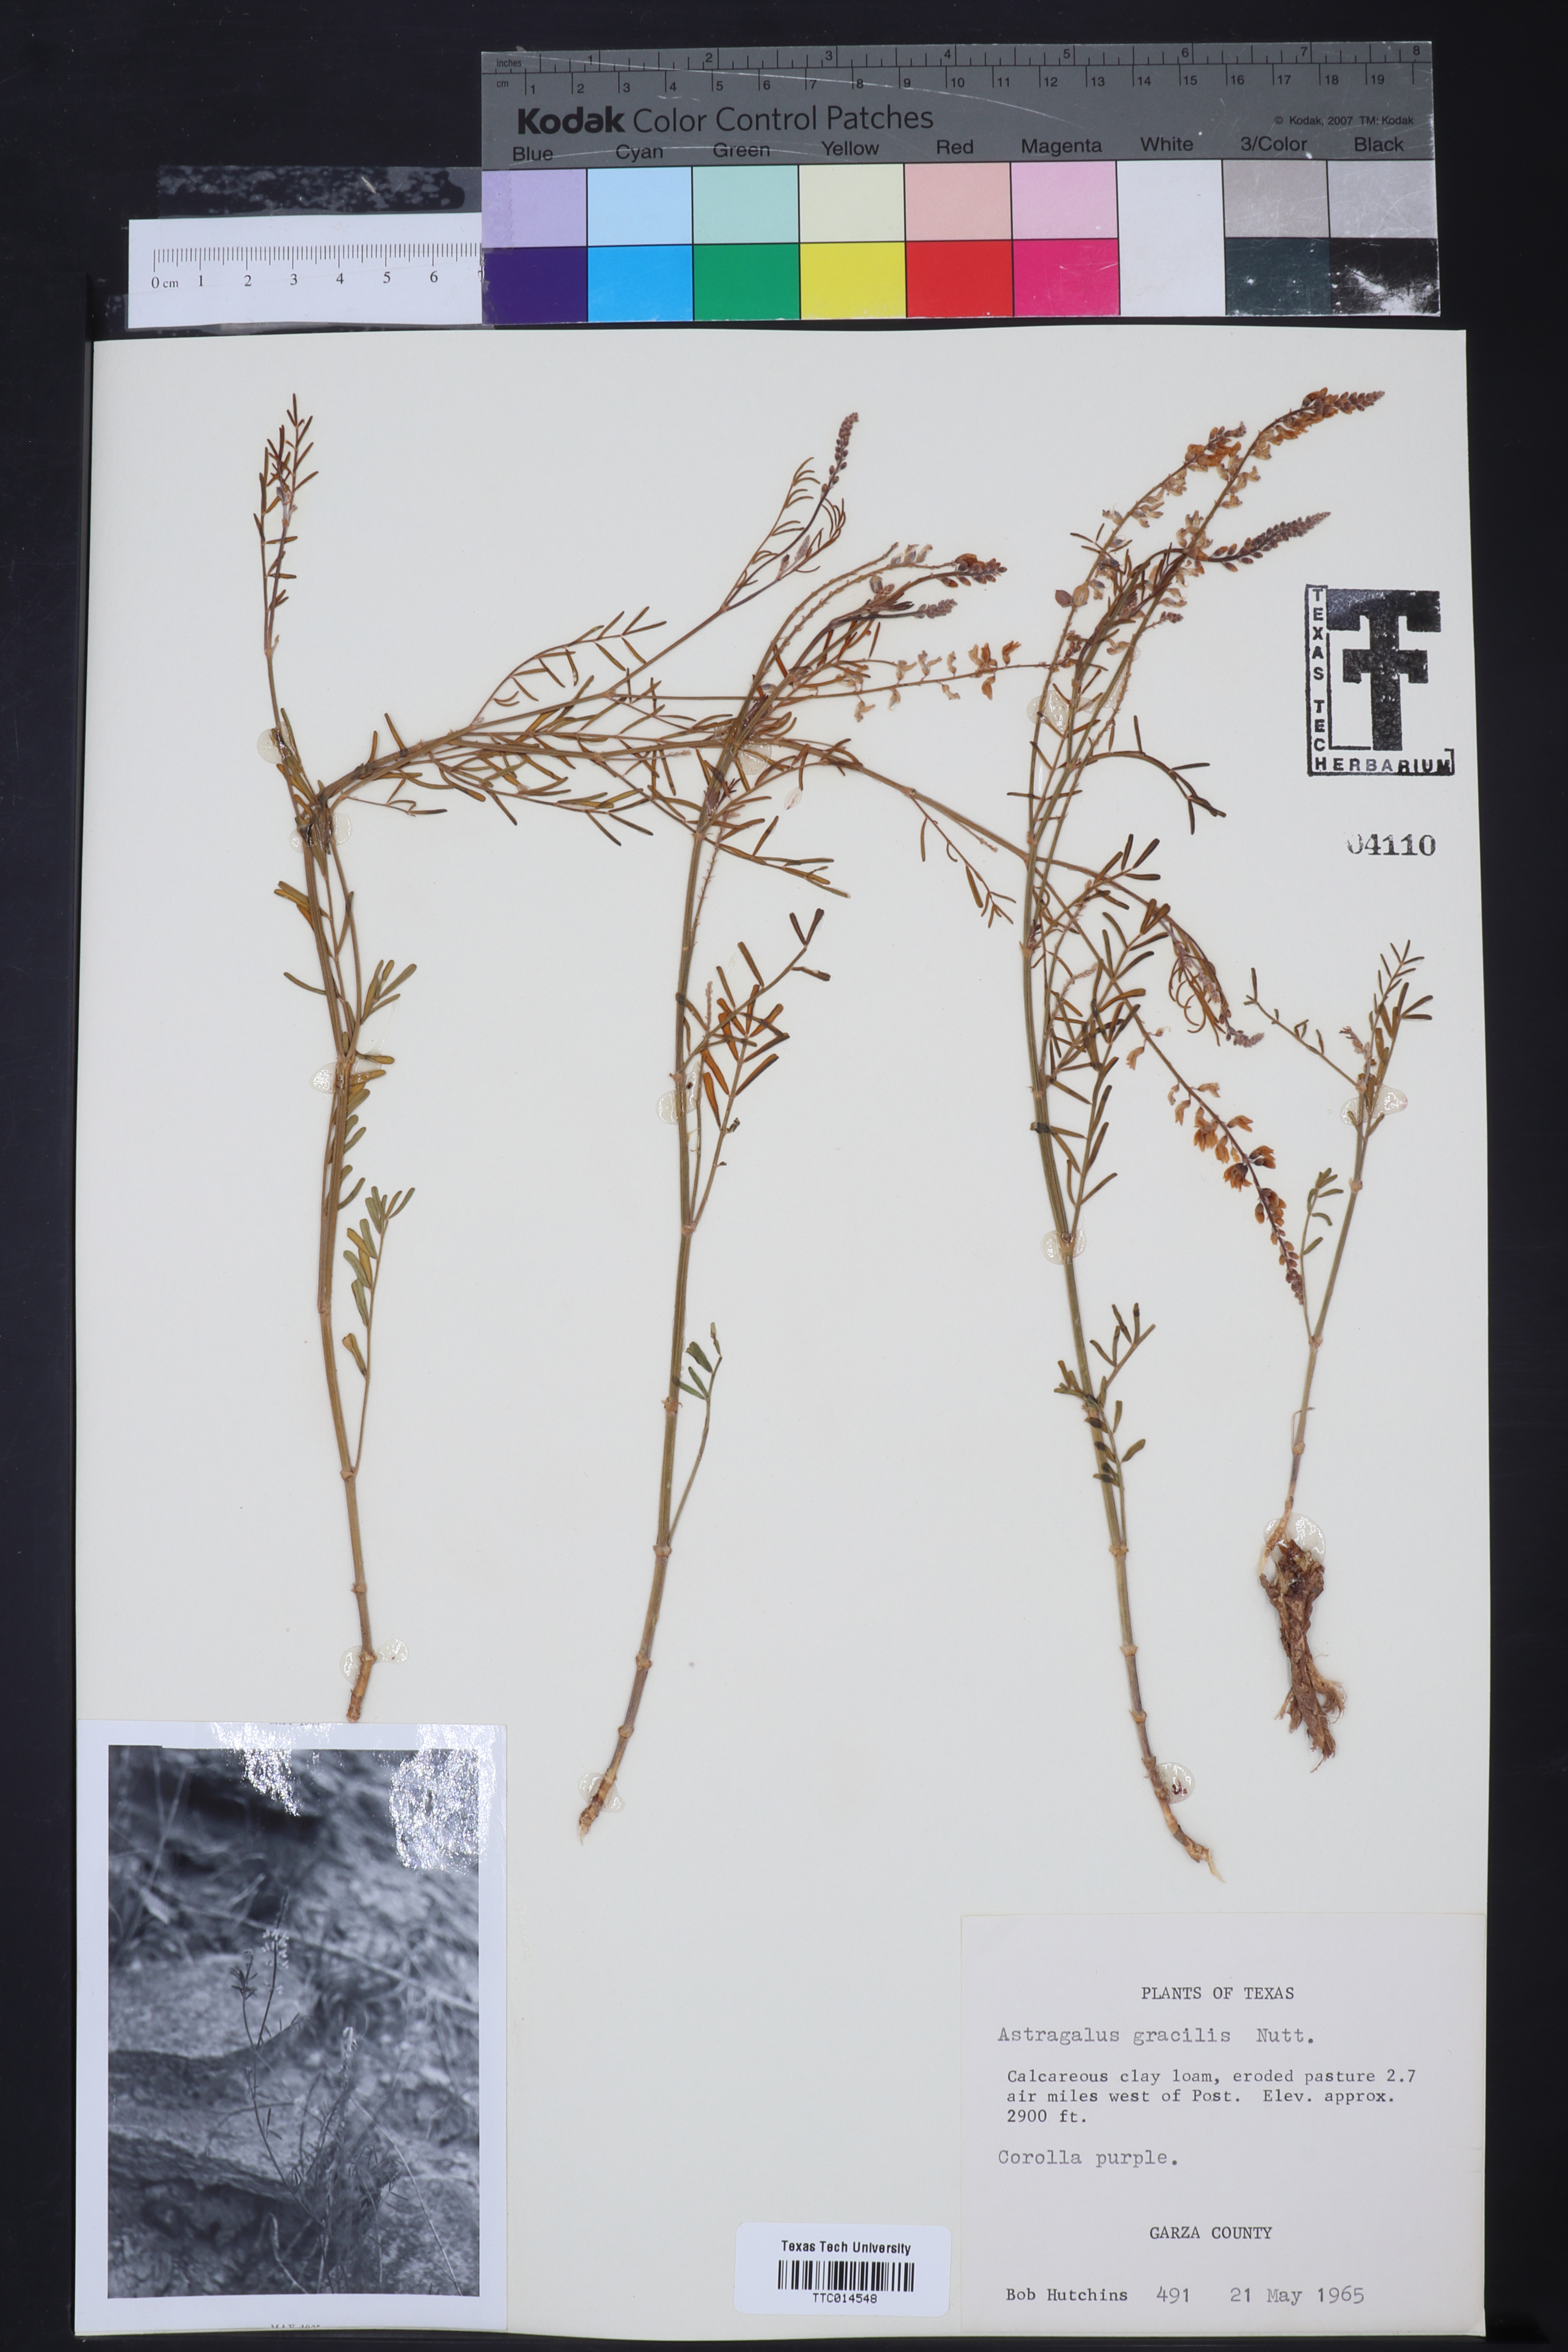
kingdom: Plantae
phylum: Tracheophyta
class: Magnoliopsida
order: Fabales
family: Fabaceae
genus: Astragalus
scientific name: Astragalus gracilis
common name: Slender milk-vetch
